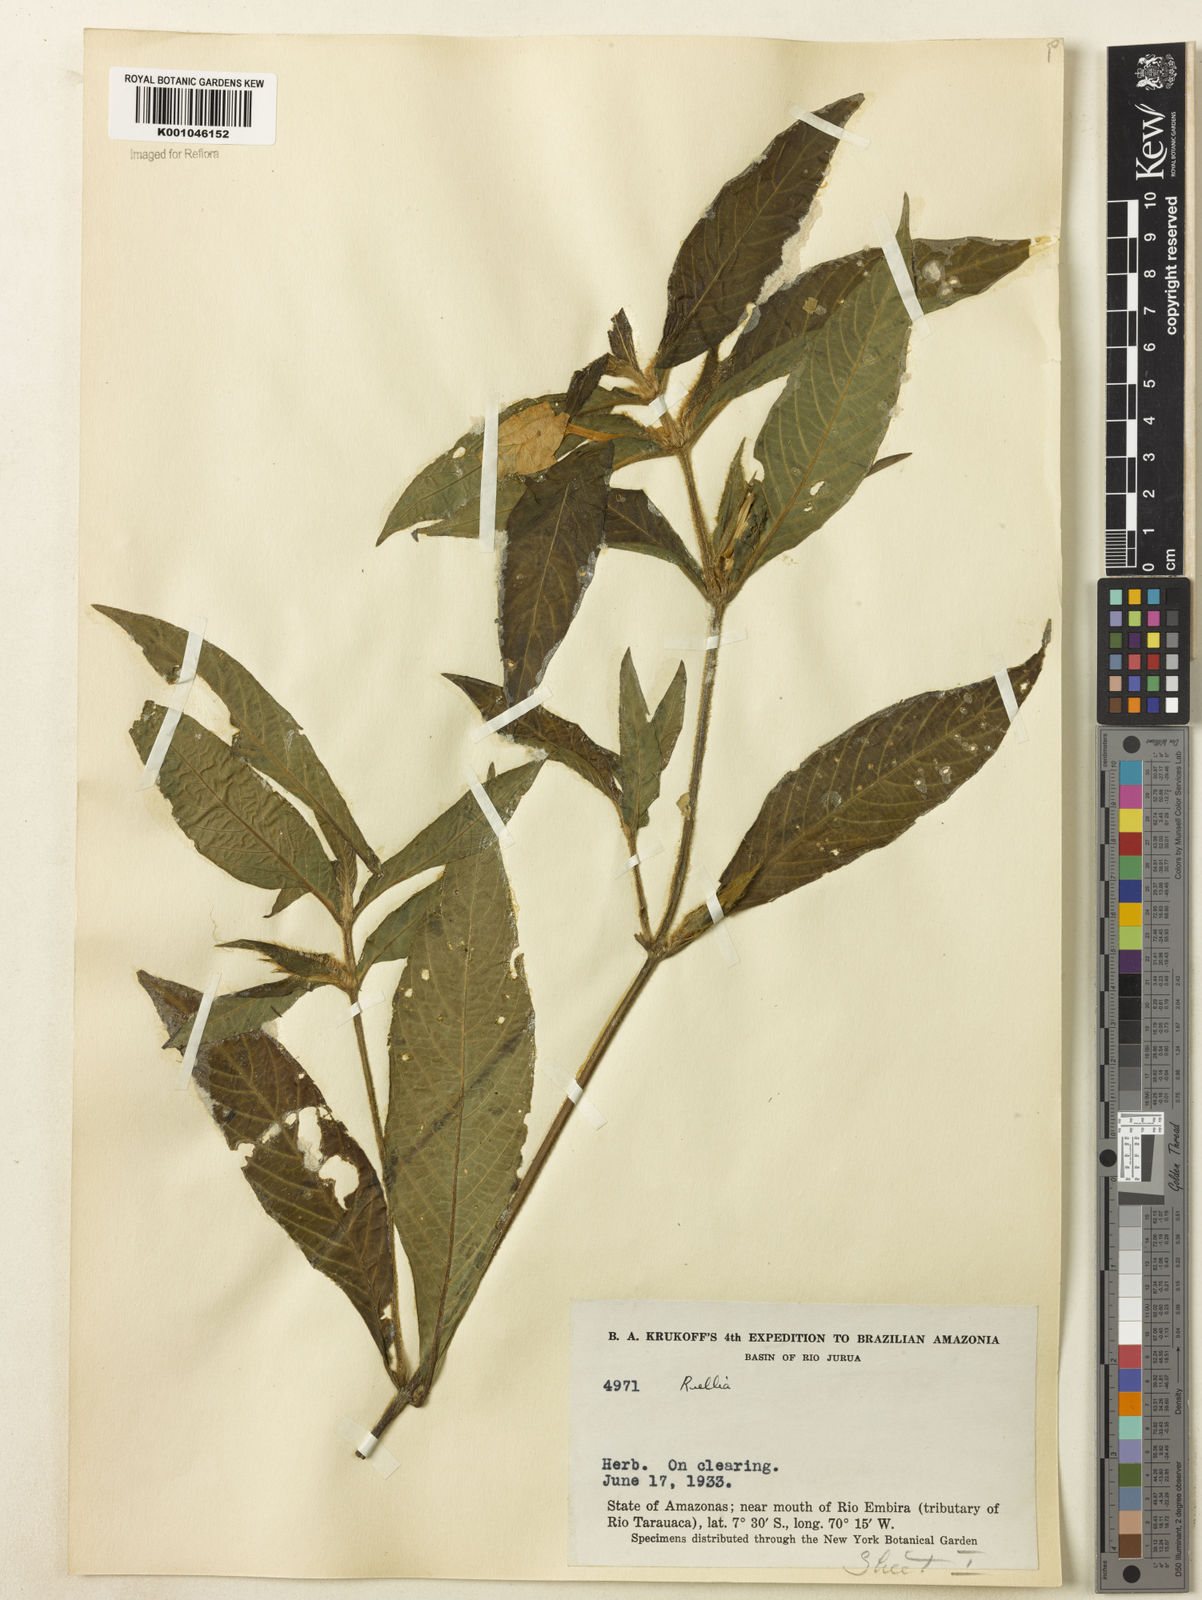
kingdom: Plantae
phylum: Tracheophyta
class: Magnoliopsida
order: Lamiales
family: Acanthaceae
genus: Ruellia
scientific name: Ruellia
